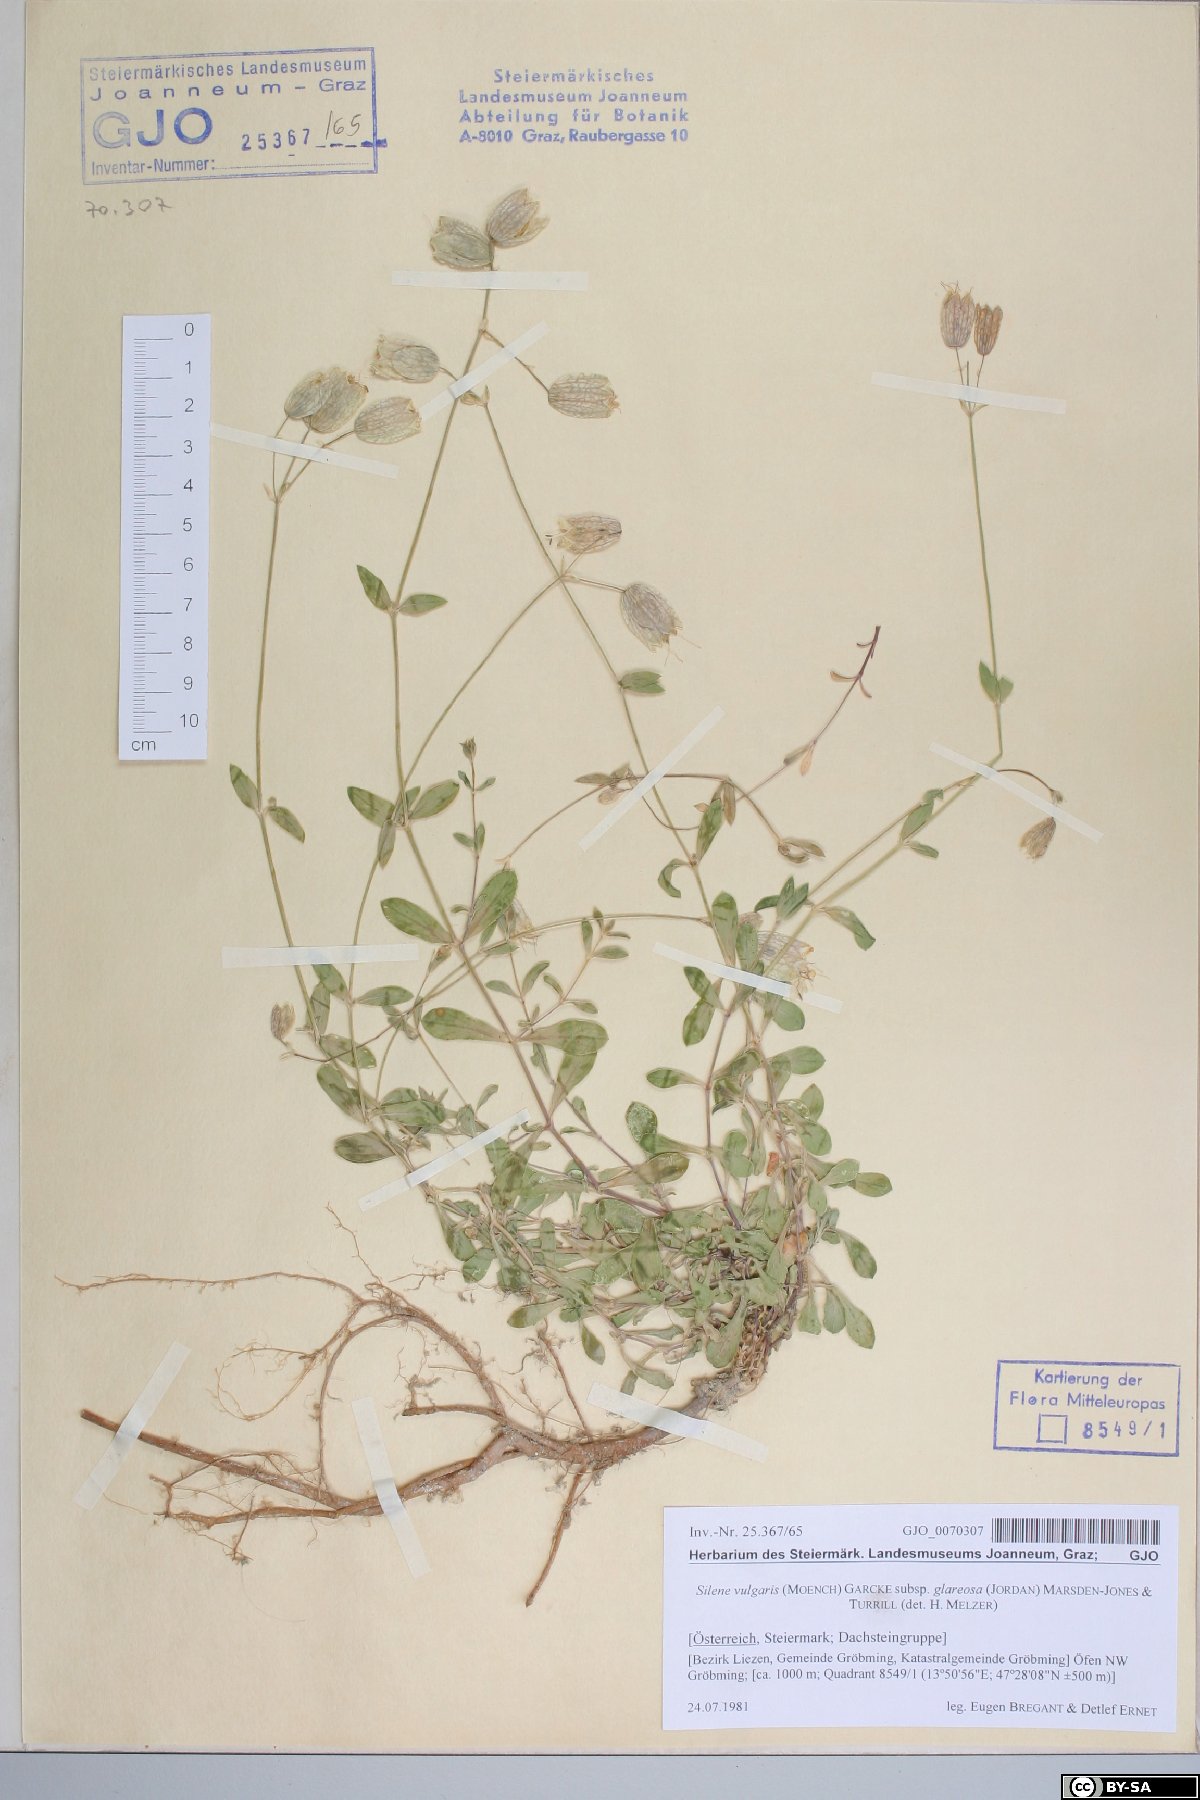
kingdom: Plantae
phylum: Tracheophyta
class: Magnoliopsida
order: Caryophyllales
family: Caryophyllaceae
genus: Silene
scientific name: Silene glareosa
